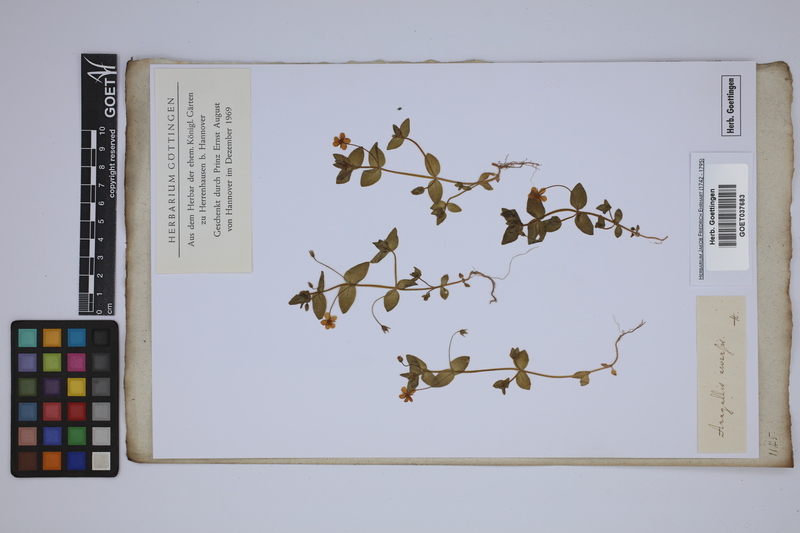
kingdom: Plantae
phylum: Tracheophyta
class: Magnoliopsida
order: Ericales
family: Primulaceae
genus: Lysimachia
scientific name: Lysimachia arvensis
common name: Scarlet pimpernel
